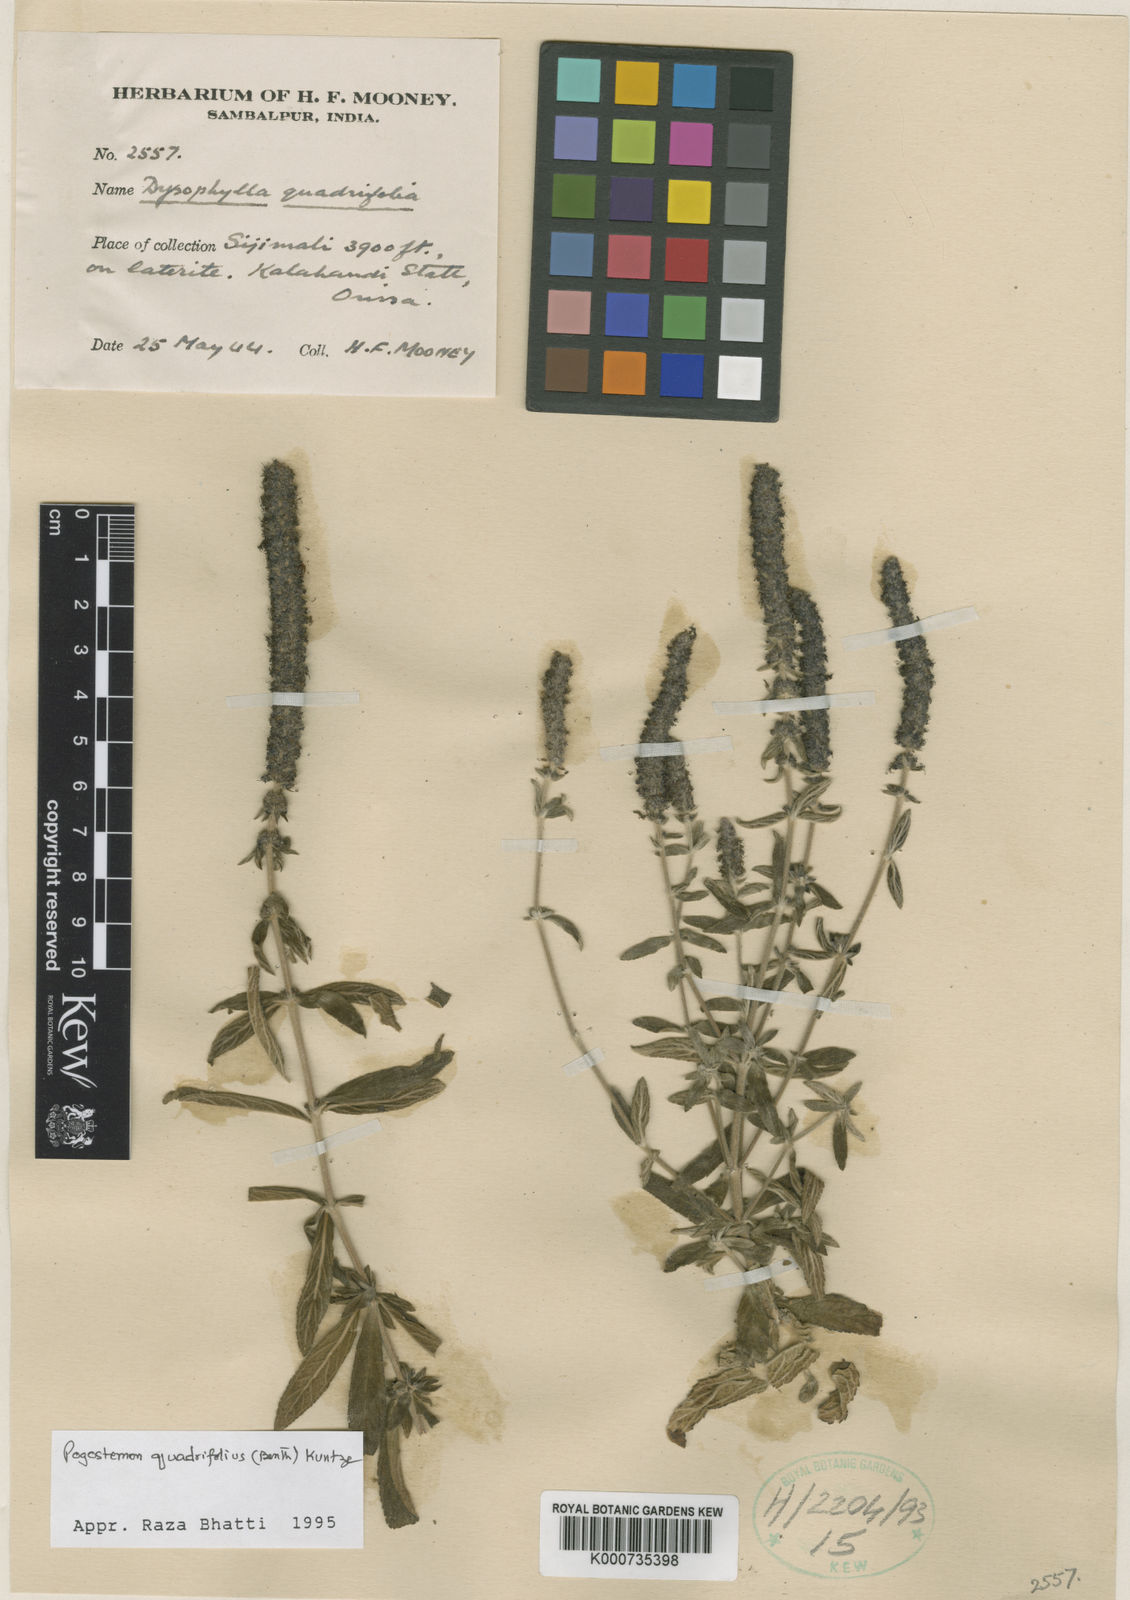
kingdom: Plantae
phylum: Tracheophyta
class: Magnoliopsida
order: Lamiales
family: Lamiaceae
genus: Pogostemon
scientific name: Pogostemon quadrifolius
